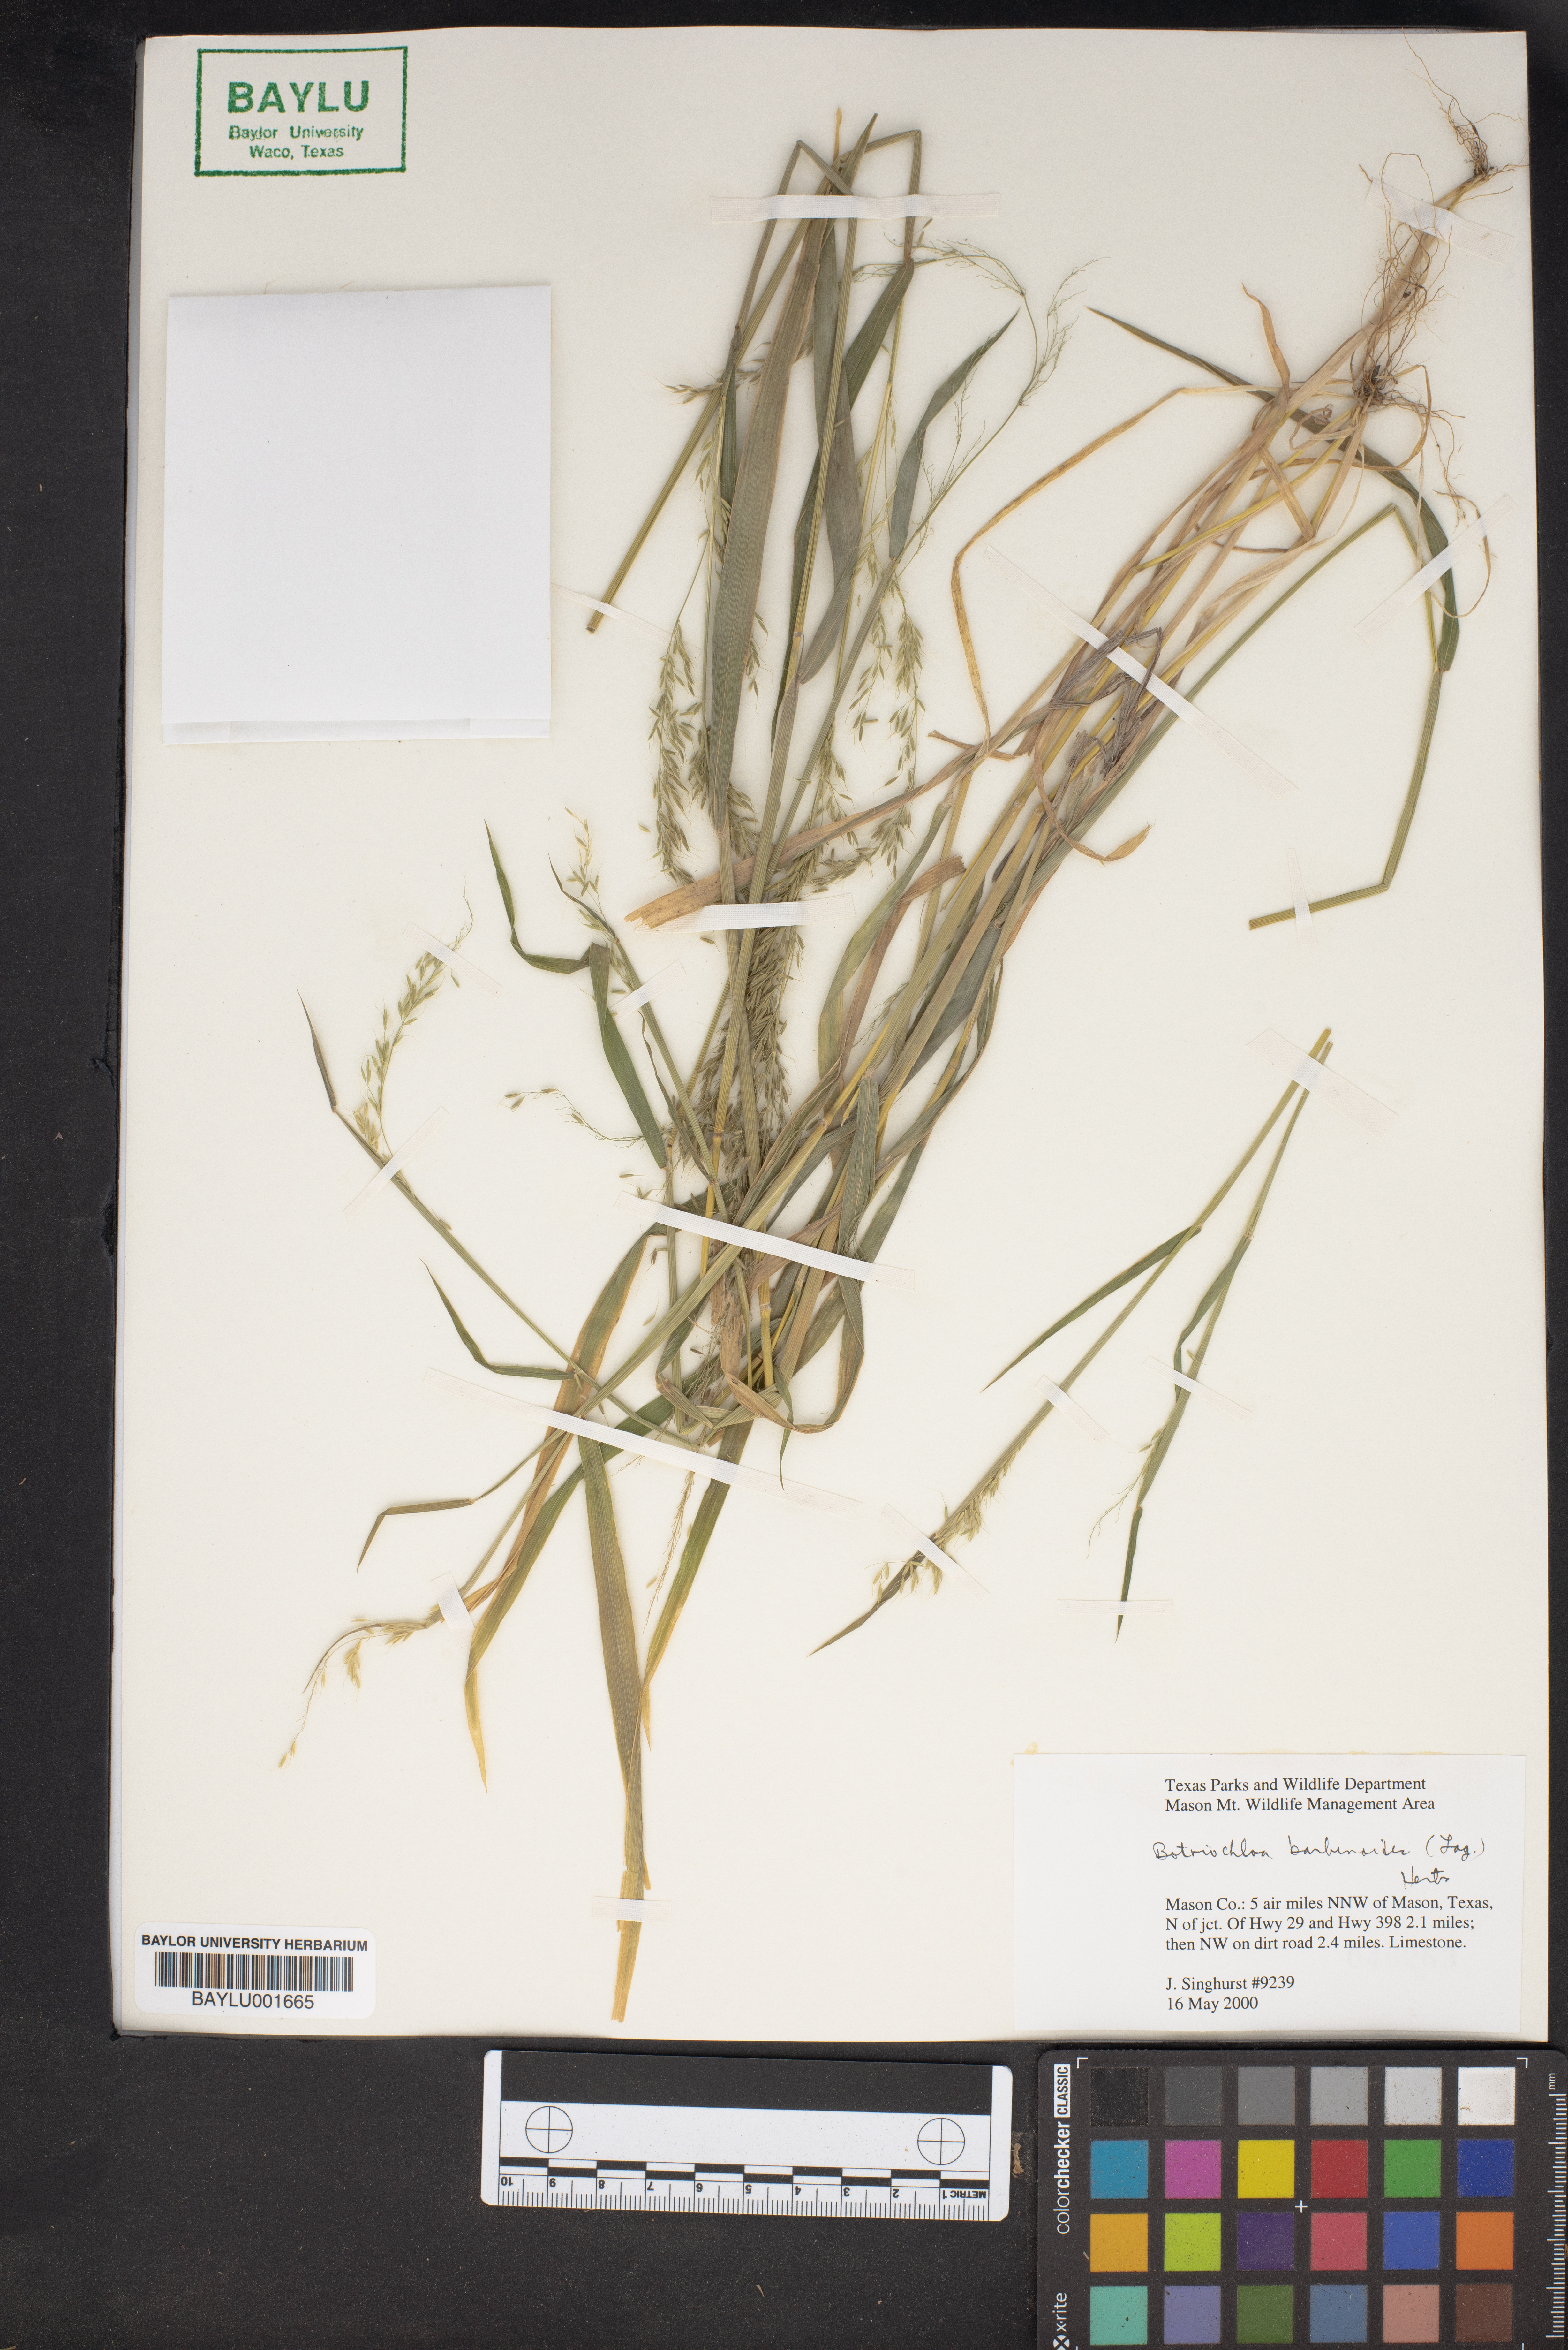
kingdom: Plantae
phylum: Tracheophyta
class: Liliopsida
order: Poales
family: Poaceae
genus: Bothriochloa
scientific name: Bothriochloa barbinodis
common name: Cane bluestem
